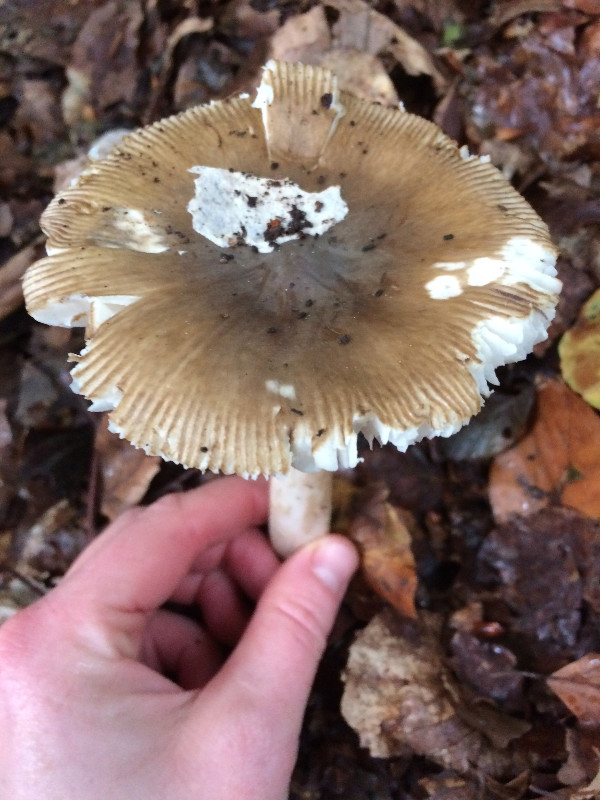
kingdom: Fungi
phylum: Basidiomycota
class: Agaricomycetes
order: Agaricales
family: Amanitaceae
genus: Amanita
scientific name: Amanita fulva
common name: brun kam-fluesvamp
